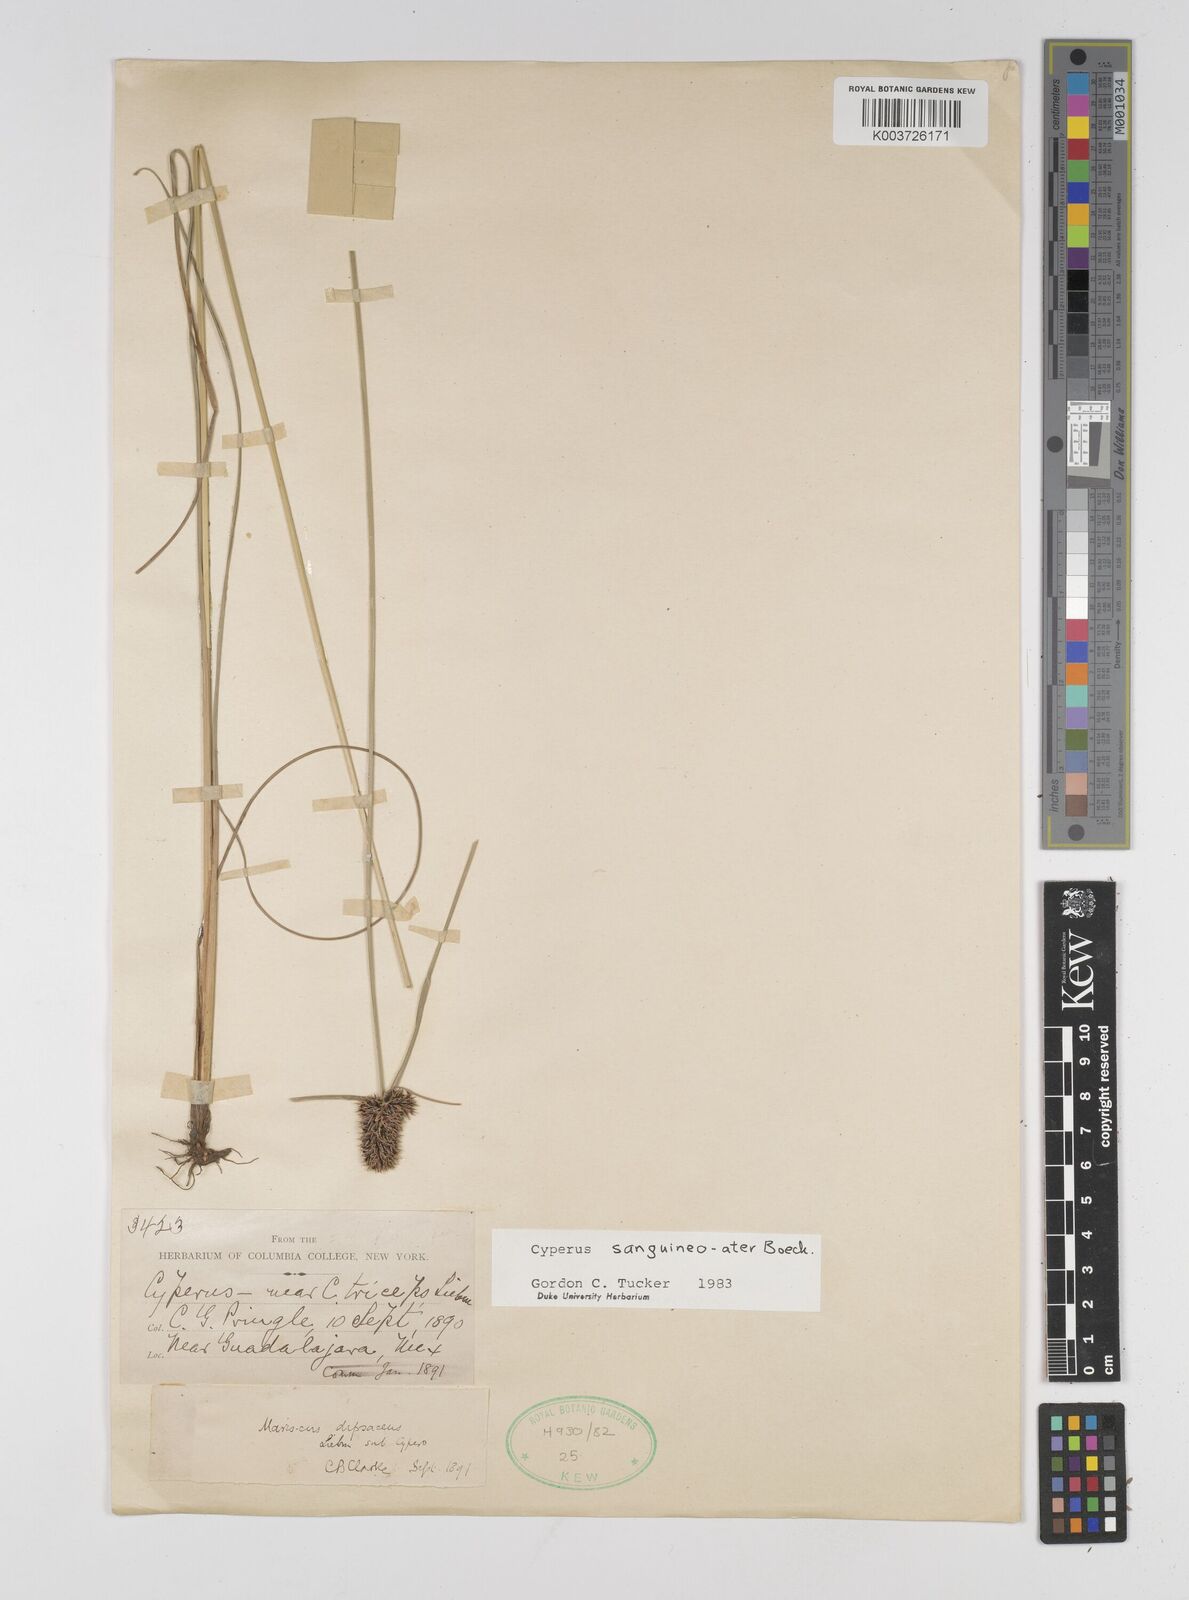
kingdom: Plantae
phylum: Tracheophyta
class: Liliopsida
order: Poales
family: Cyperaceae
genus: Cyperus
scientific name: Cyperus sanguineoater
